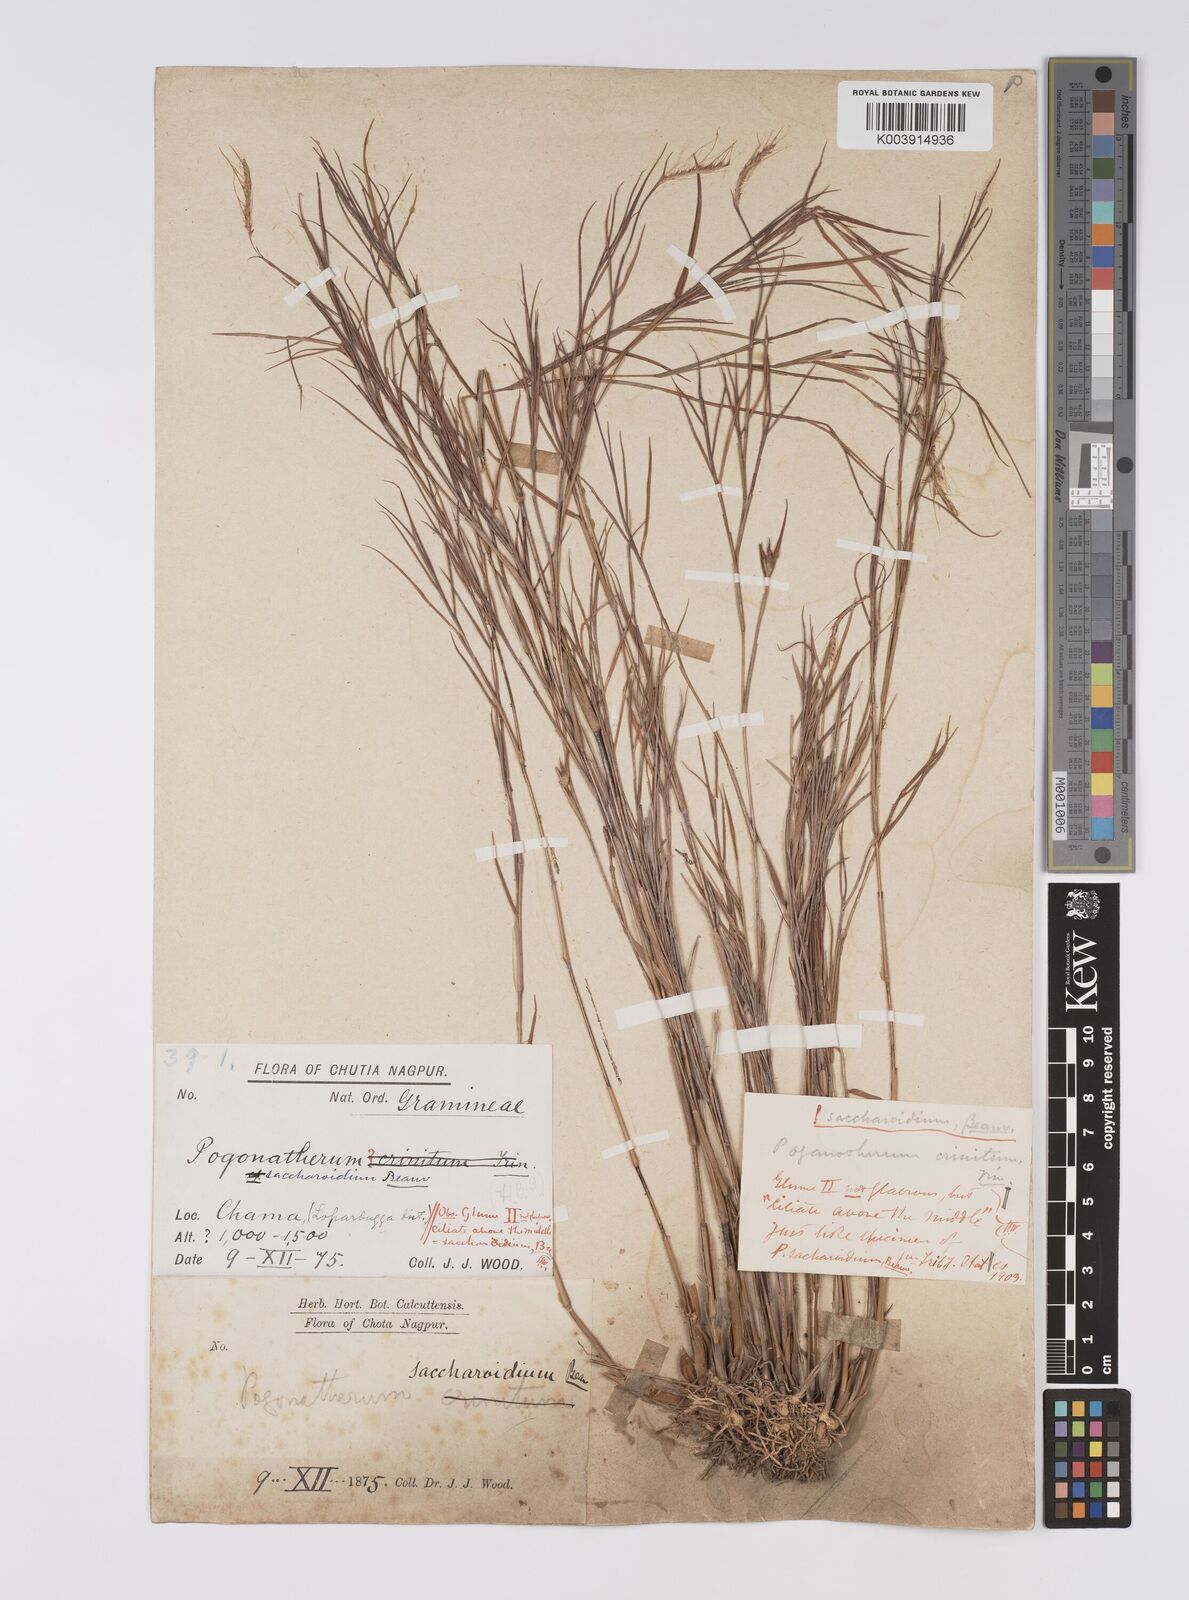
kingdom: Plantae
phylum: Tracheophyta
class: Liliopsida
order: Poales
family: Poaceae
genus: Pogonatherum
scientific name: Pogonatherum paniceum
